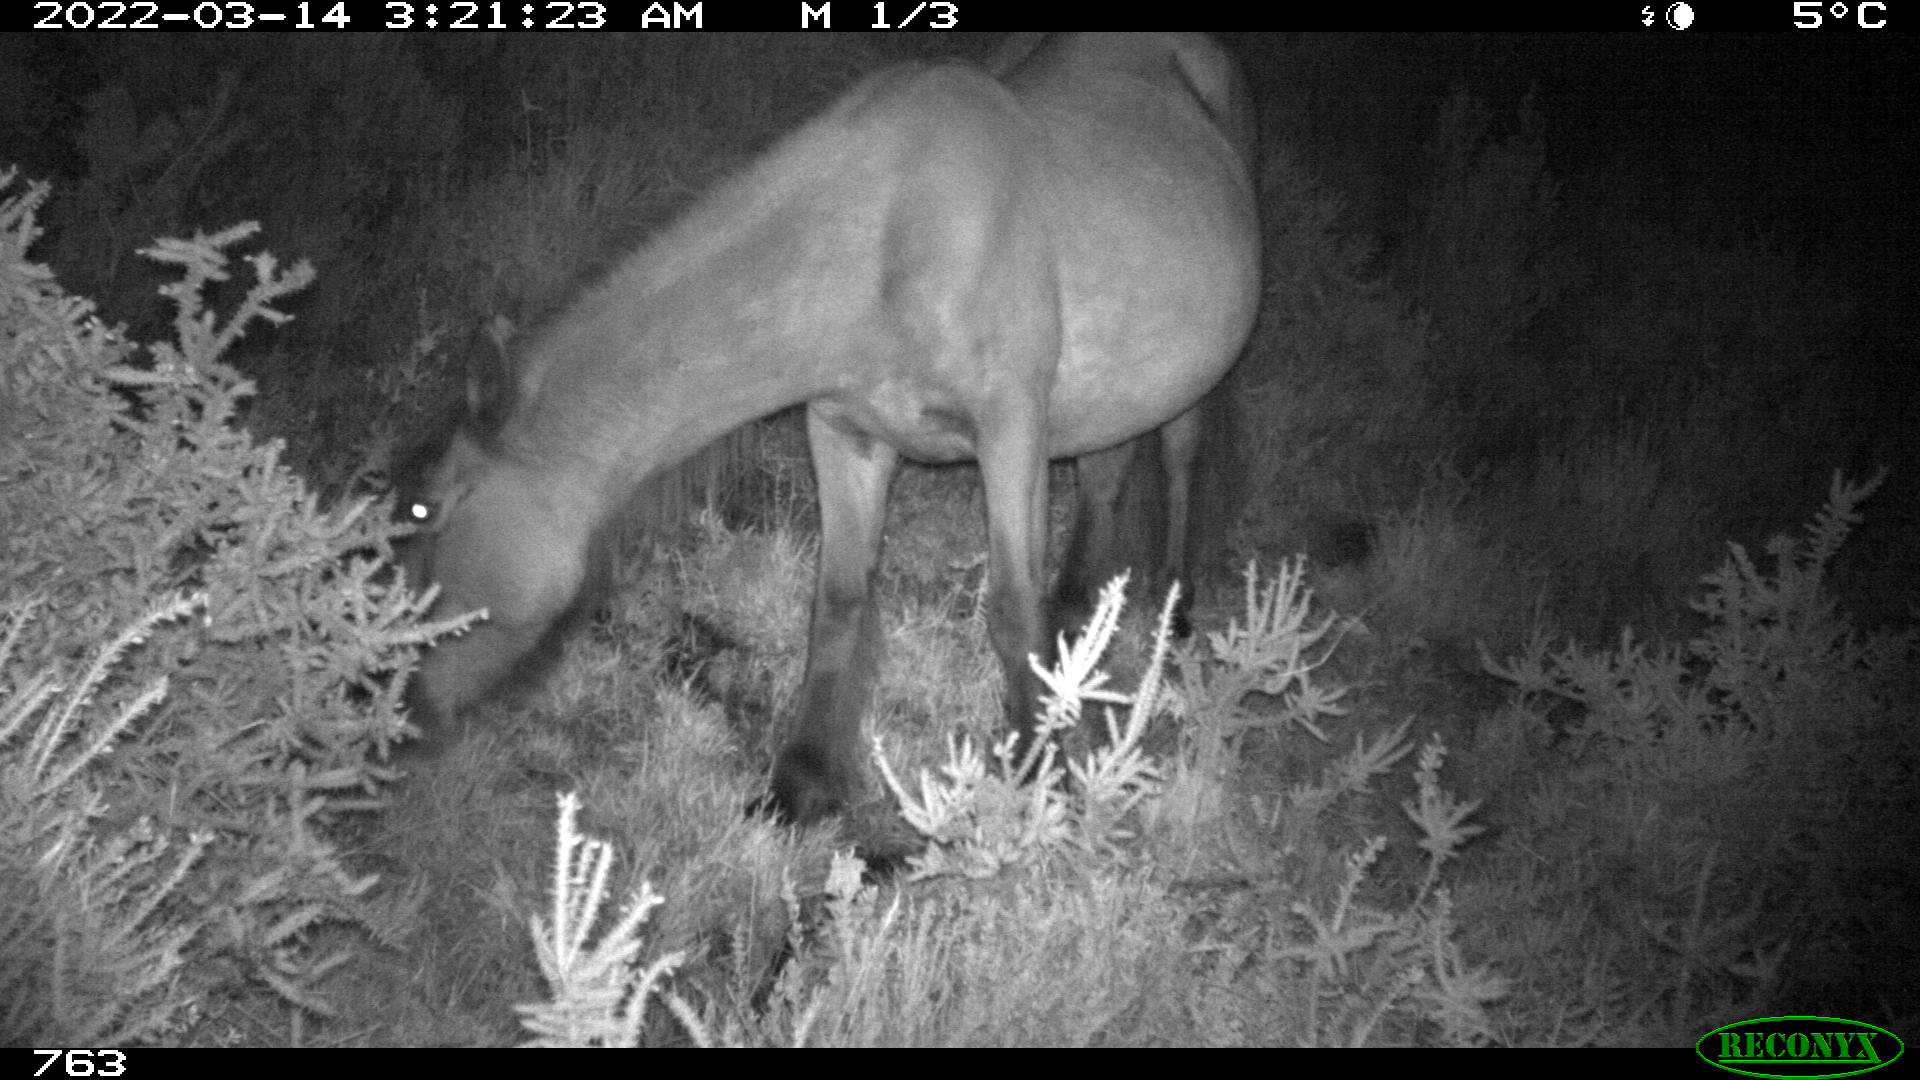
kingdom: Animalia
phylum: Chordata
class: Mammalia
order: Perissodactyla
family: Equidae
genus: Equus
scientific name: Equus caballus
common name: Horse
